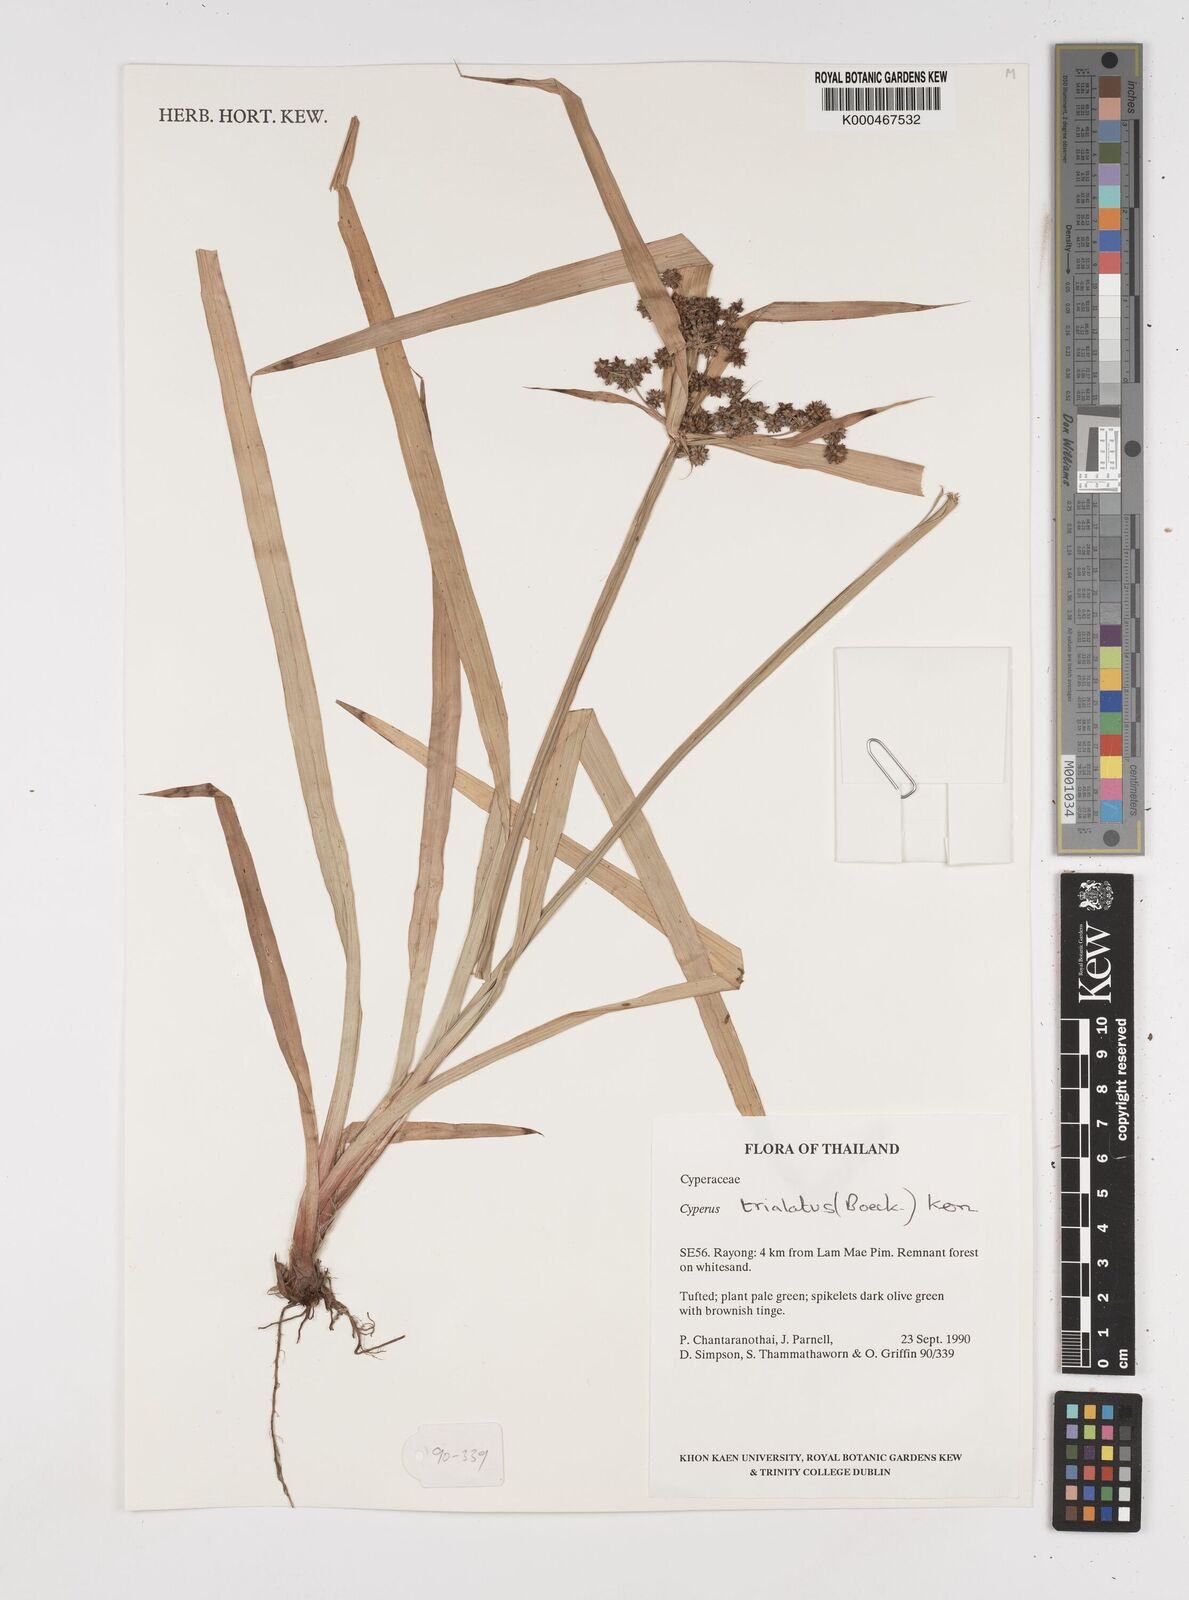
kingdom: Plantae
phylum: Tracheophyta
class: Liliopsida
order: Poales
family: Cyperaceae
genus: Cyperus
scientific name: Cyperus trialatus
